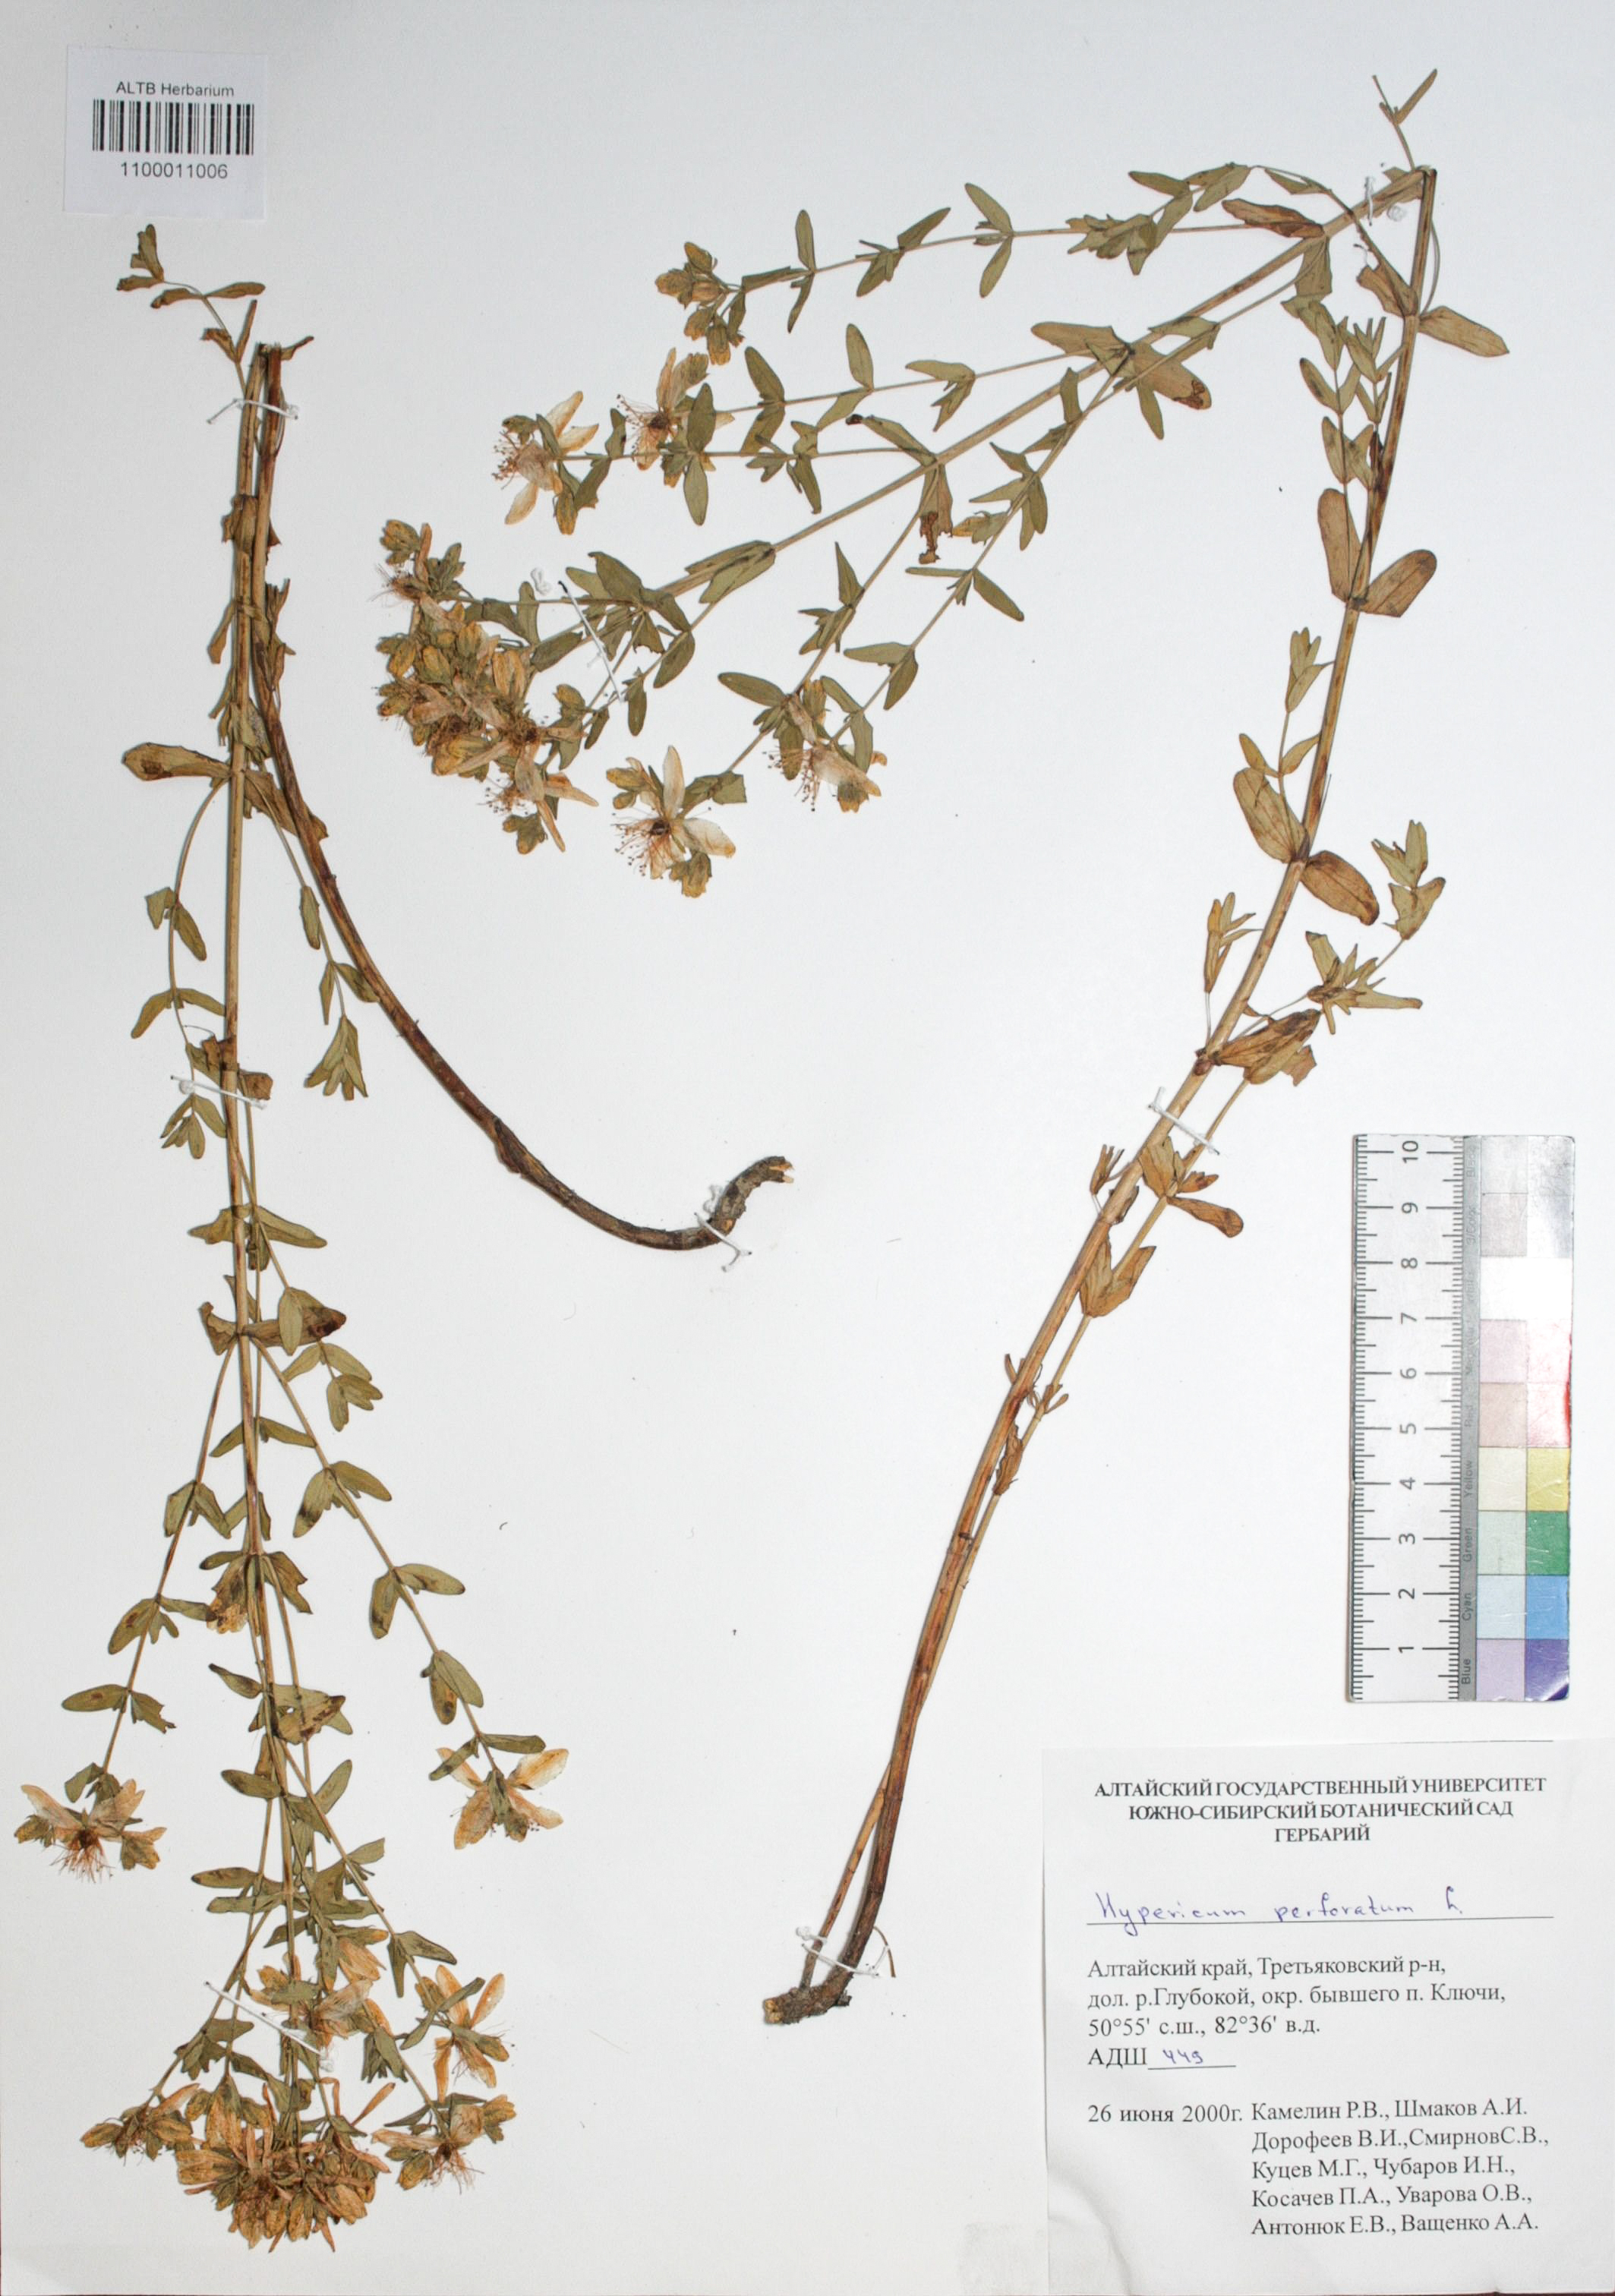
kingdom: Plantae
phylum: Tracheophyta
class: Magnoliopsida
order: Malpighiales
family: Hypericaceae
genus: Hypericum
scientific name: Hypericum perforatum
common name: Common st. johnswort
